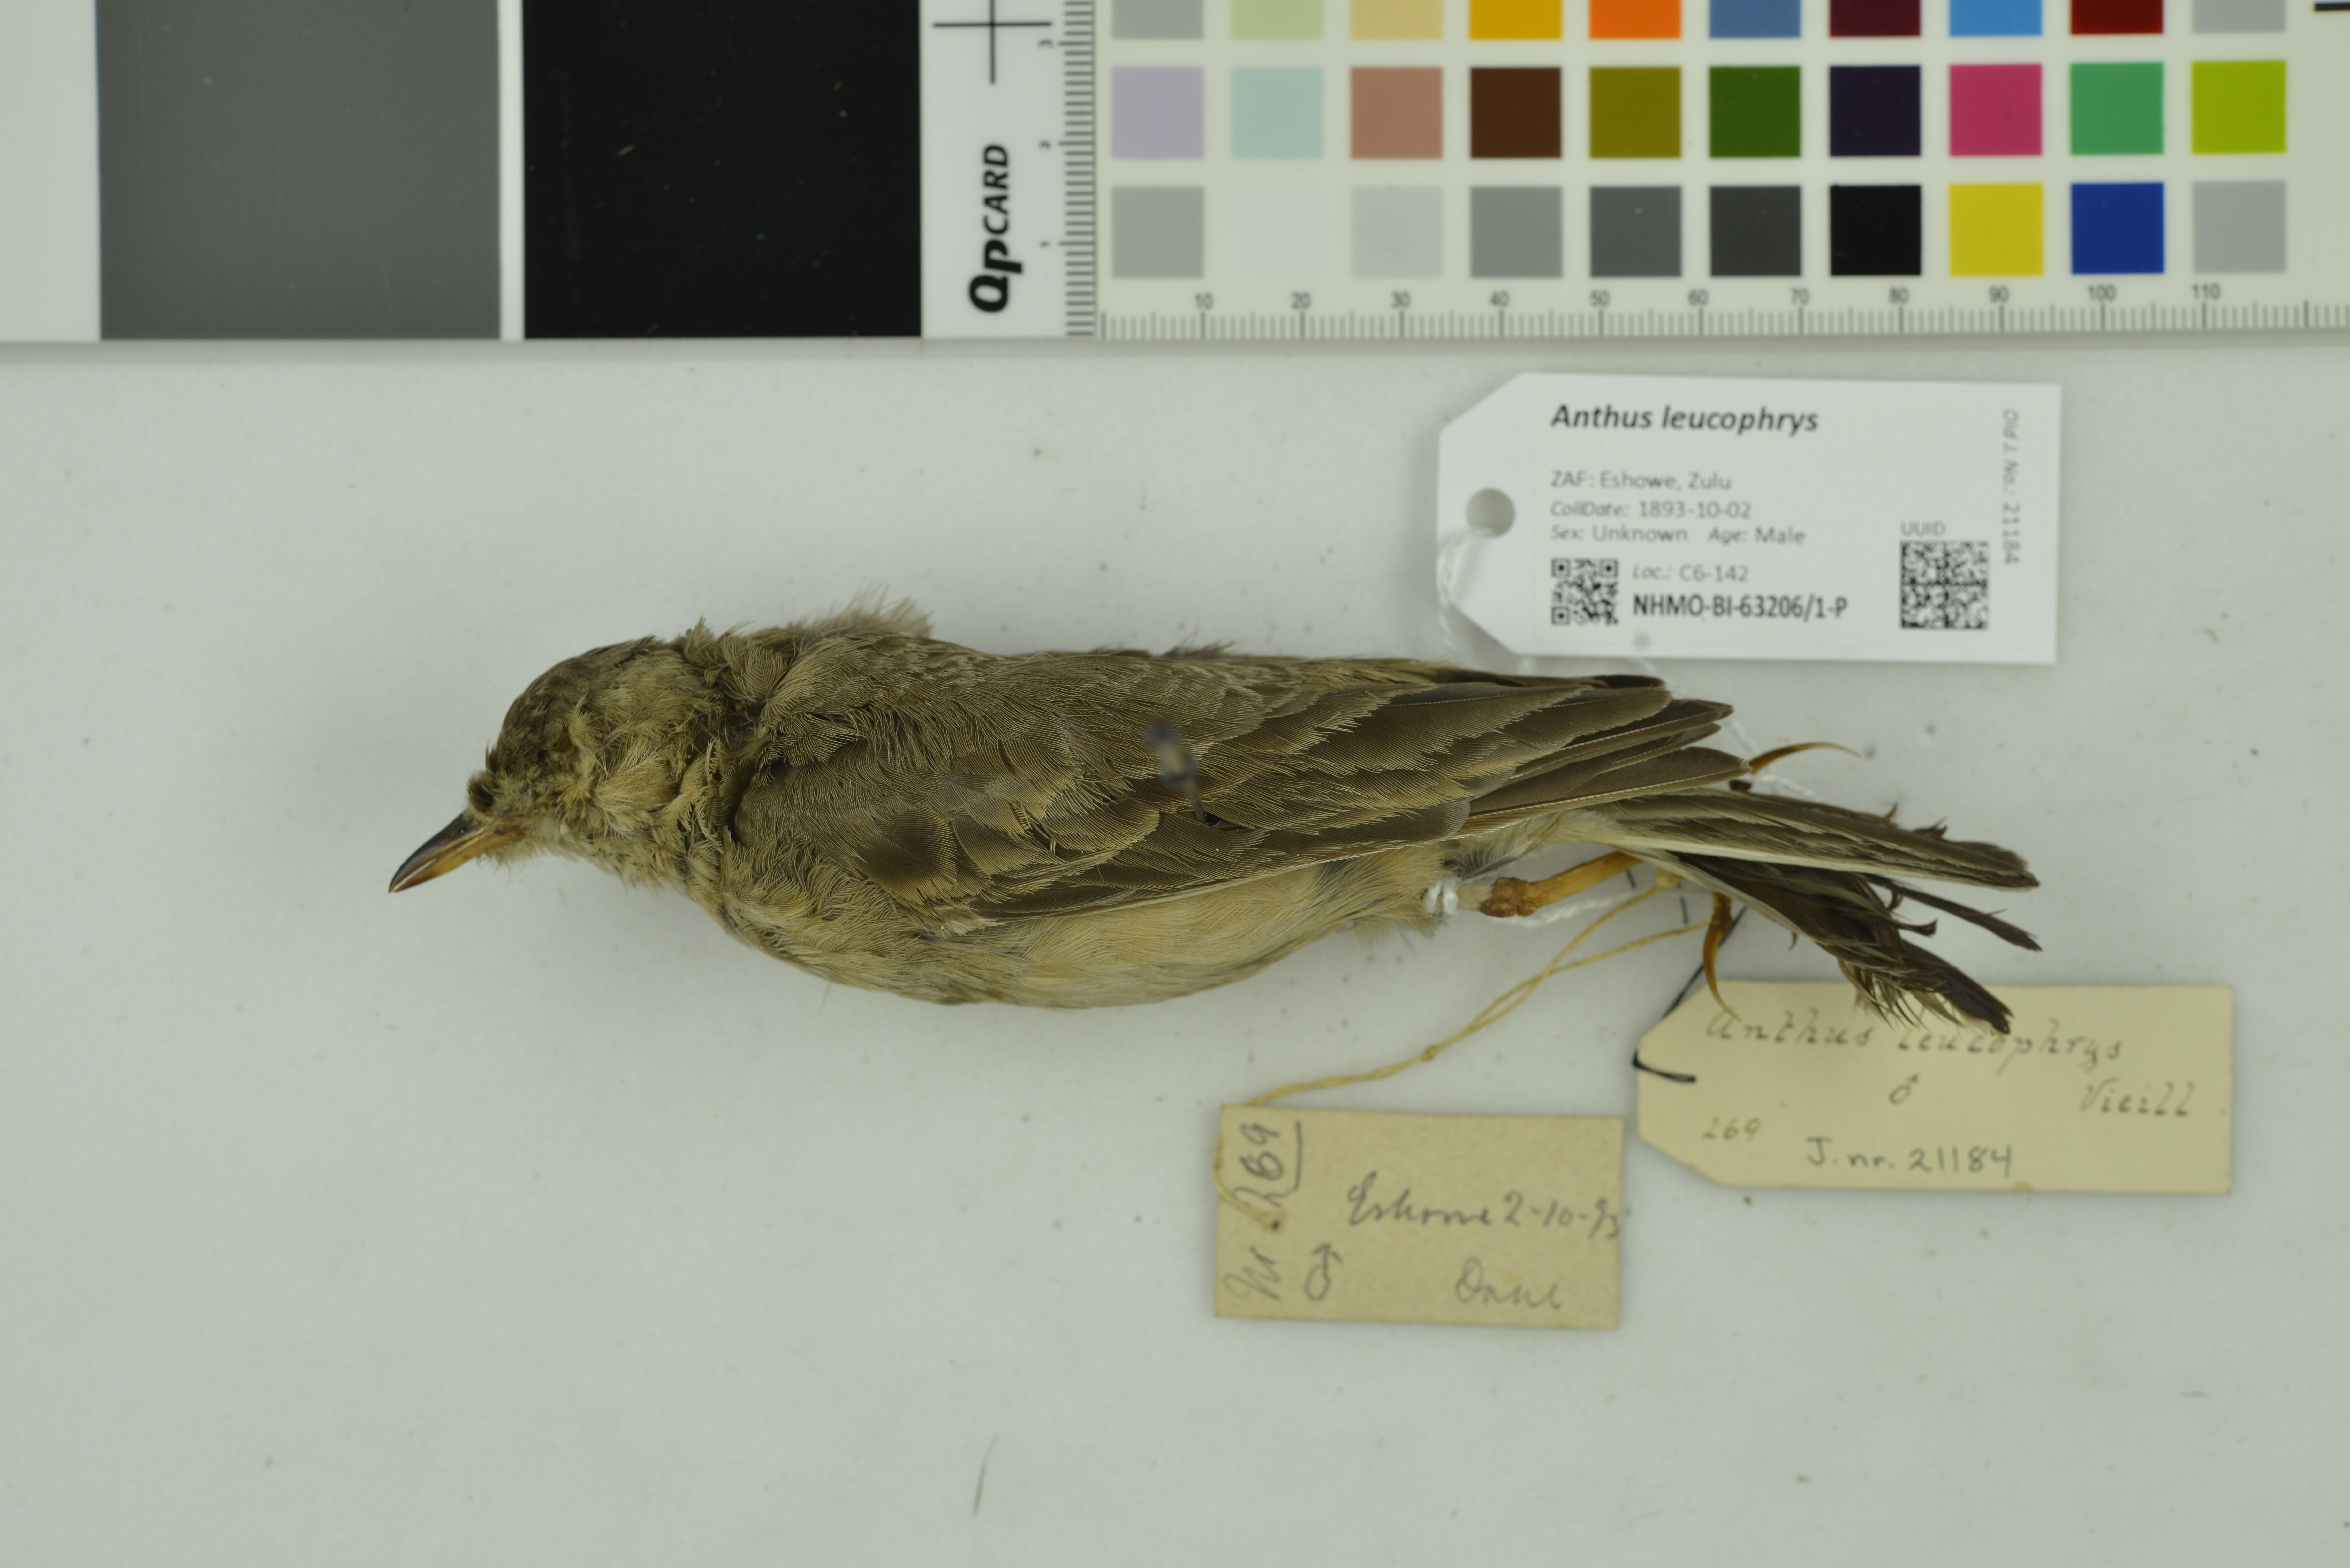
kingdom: Animalia
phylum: Chordata
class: Aves
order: Passeriformes
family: Motacillidae
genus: Anthus
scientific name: Anthus leucophrys
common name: Plain-backed pipit
